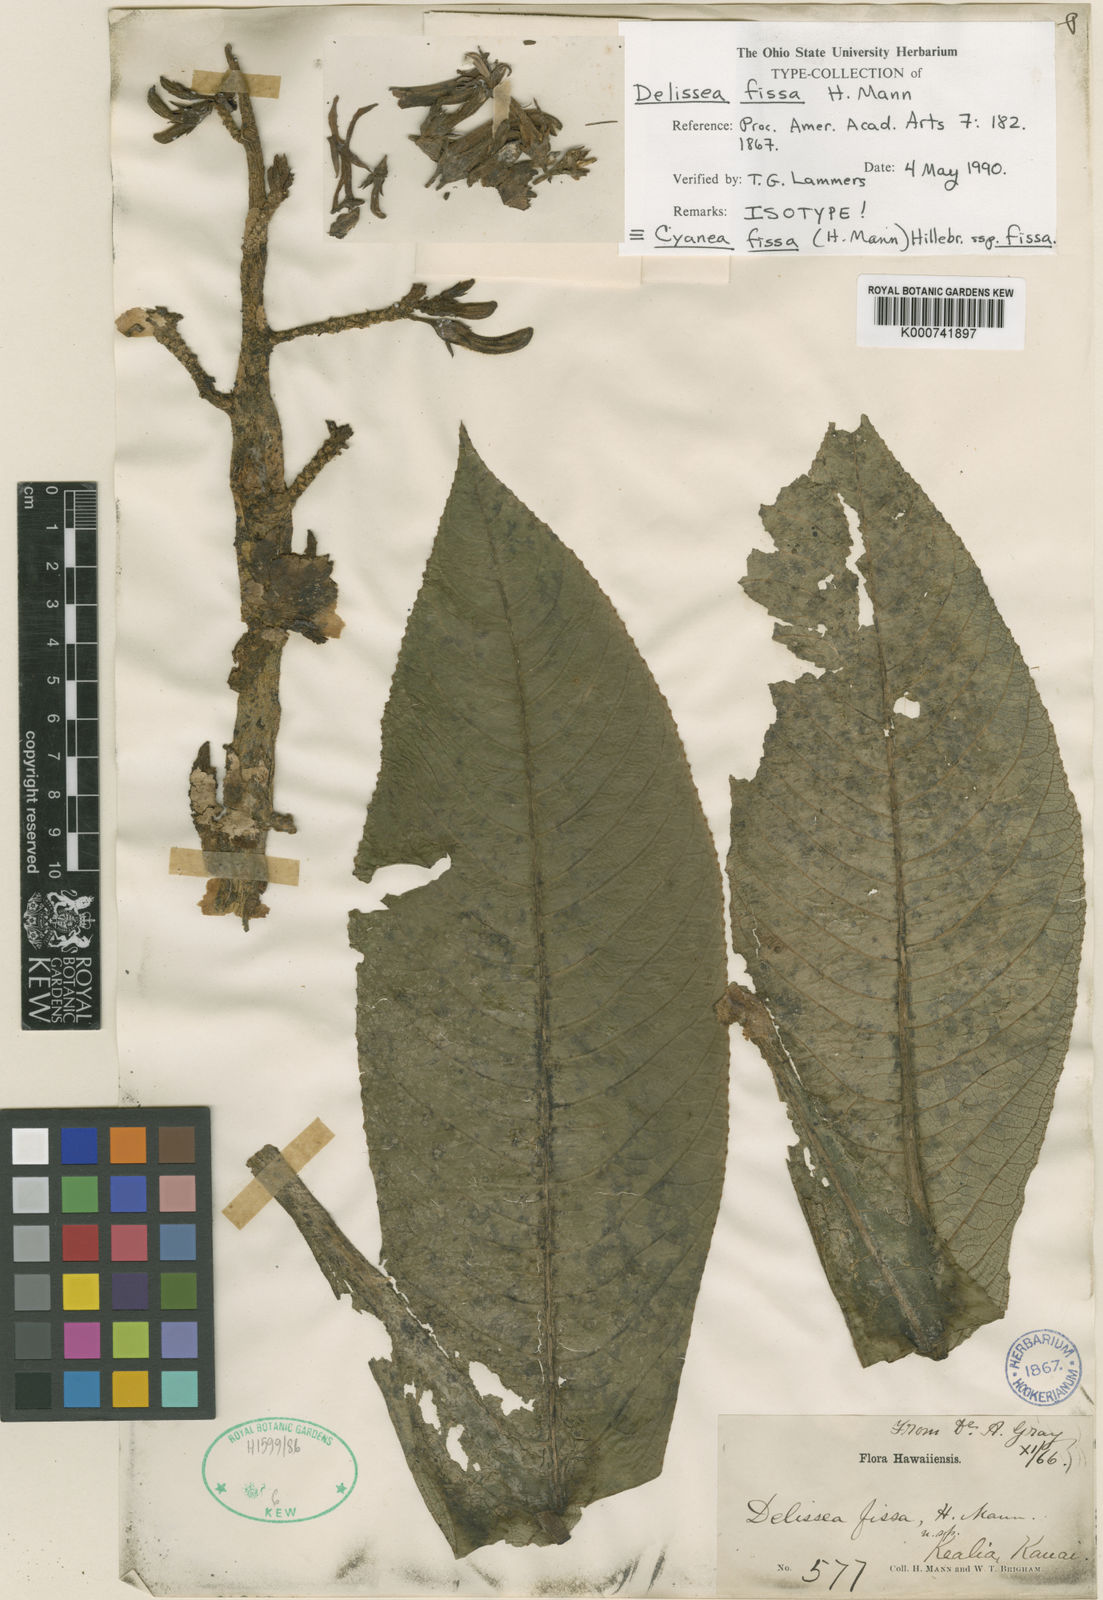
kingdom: Plantae
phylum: Tracheophyta
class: Magnoliopsida
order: Asterales
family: Campanulaceae
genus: Cyanea
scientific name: Cyanea fissa
